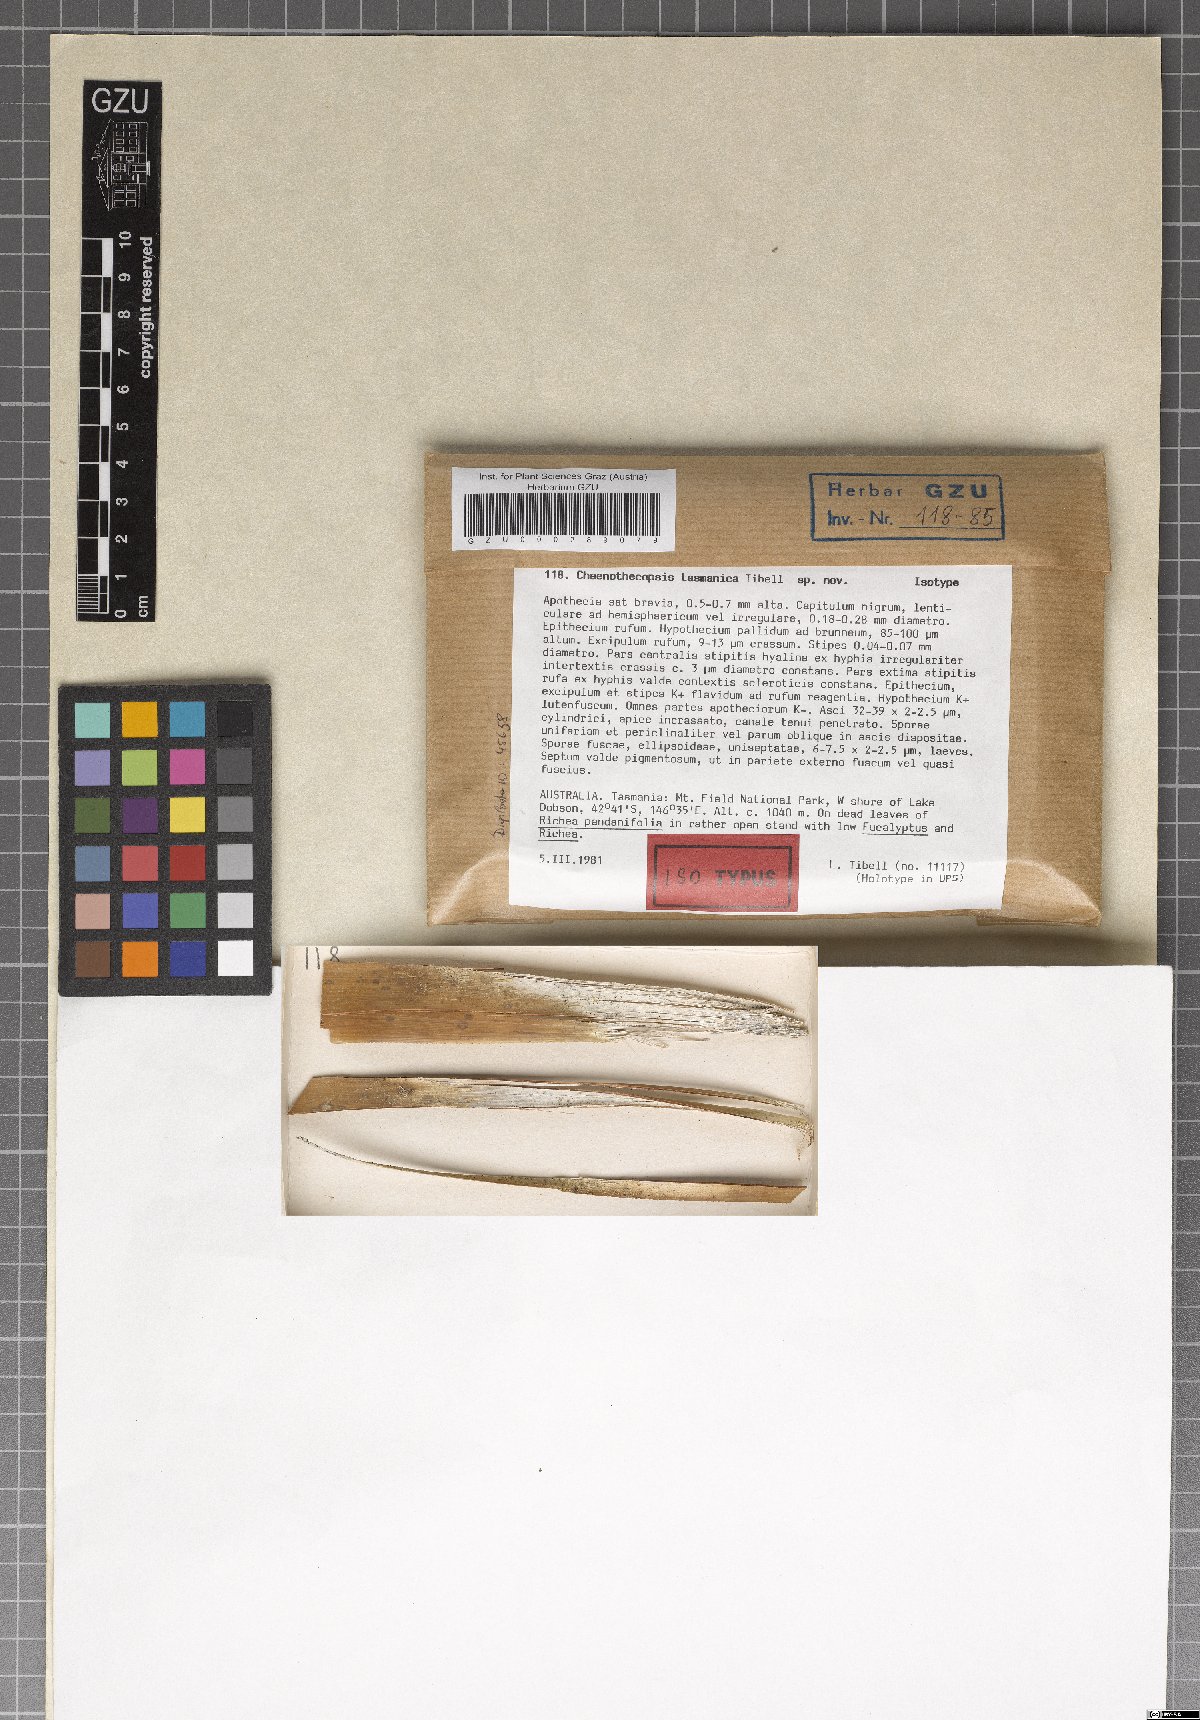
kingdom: Fungi
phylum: Ascomycota
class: Eurotiomycetes
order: Mycocaliciales
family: Mycocaliciaceae
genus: Chaenothecopsis
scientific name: Chaenothecopsis tasmanica
